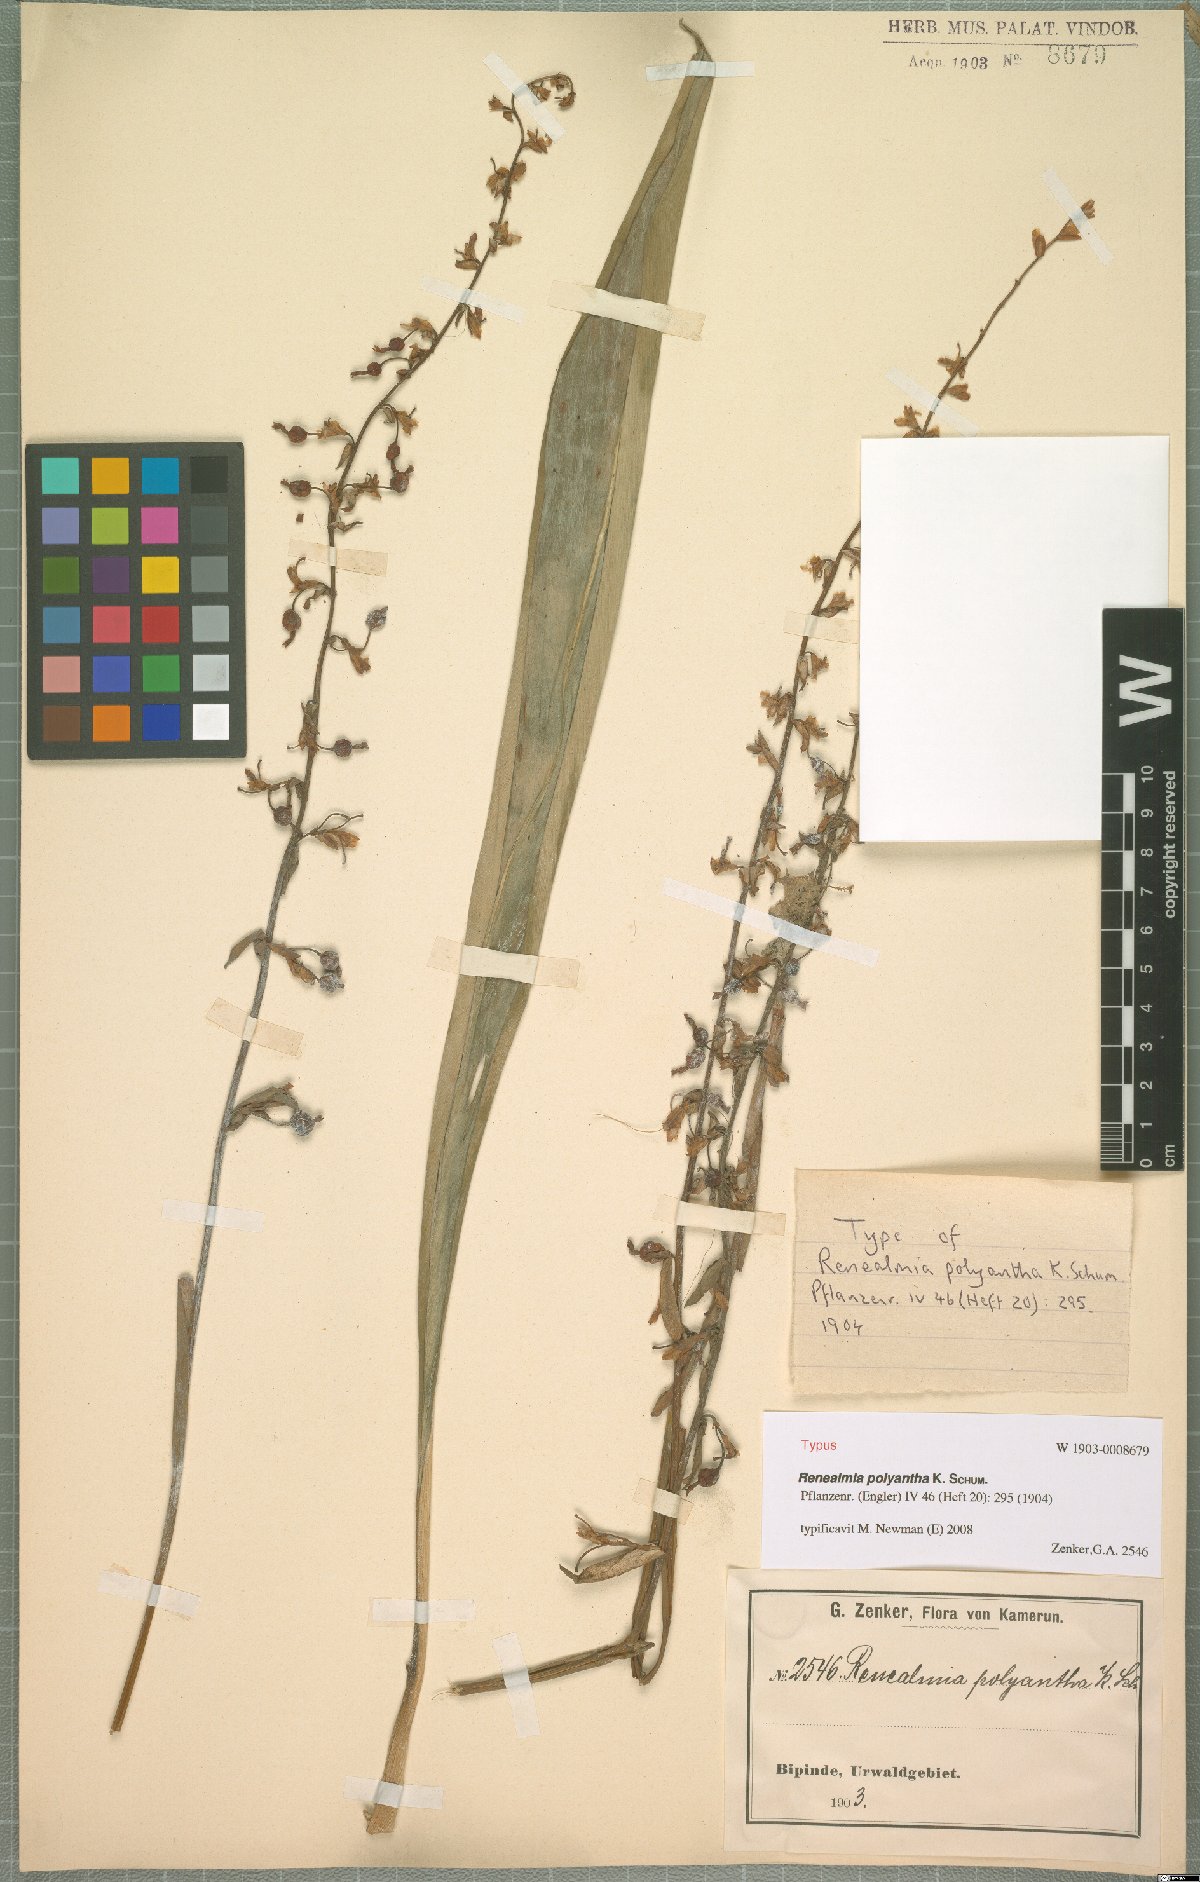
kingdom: Plantae
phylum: Tracheophyta
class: Liliopsida
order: Zingiberales
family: Zingiberaceae
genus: Renealmia
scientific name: Renealmia polyantha
